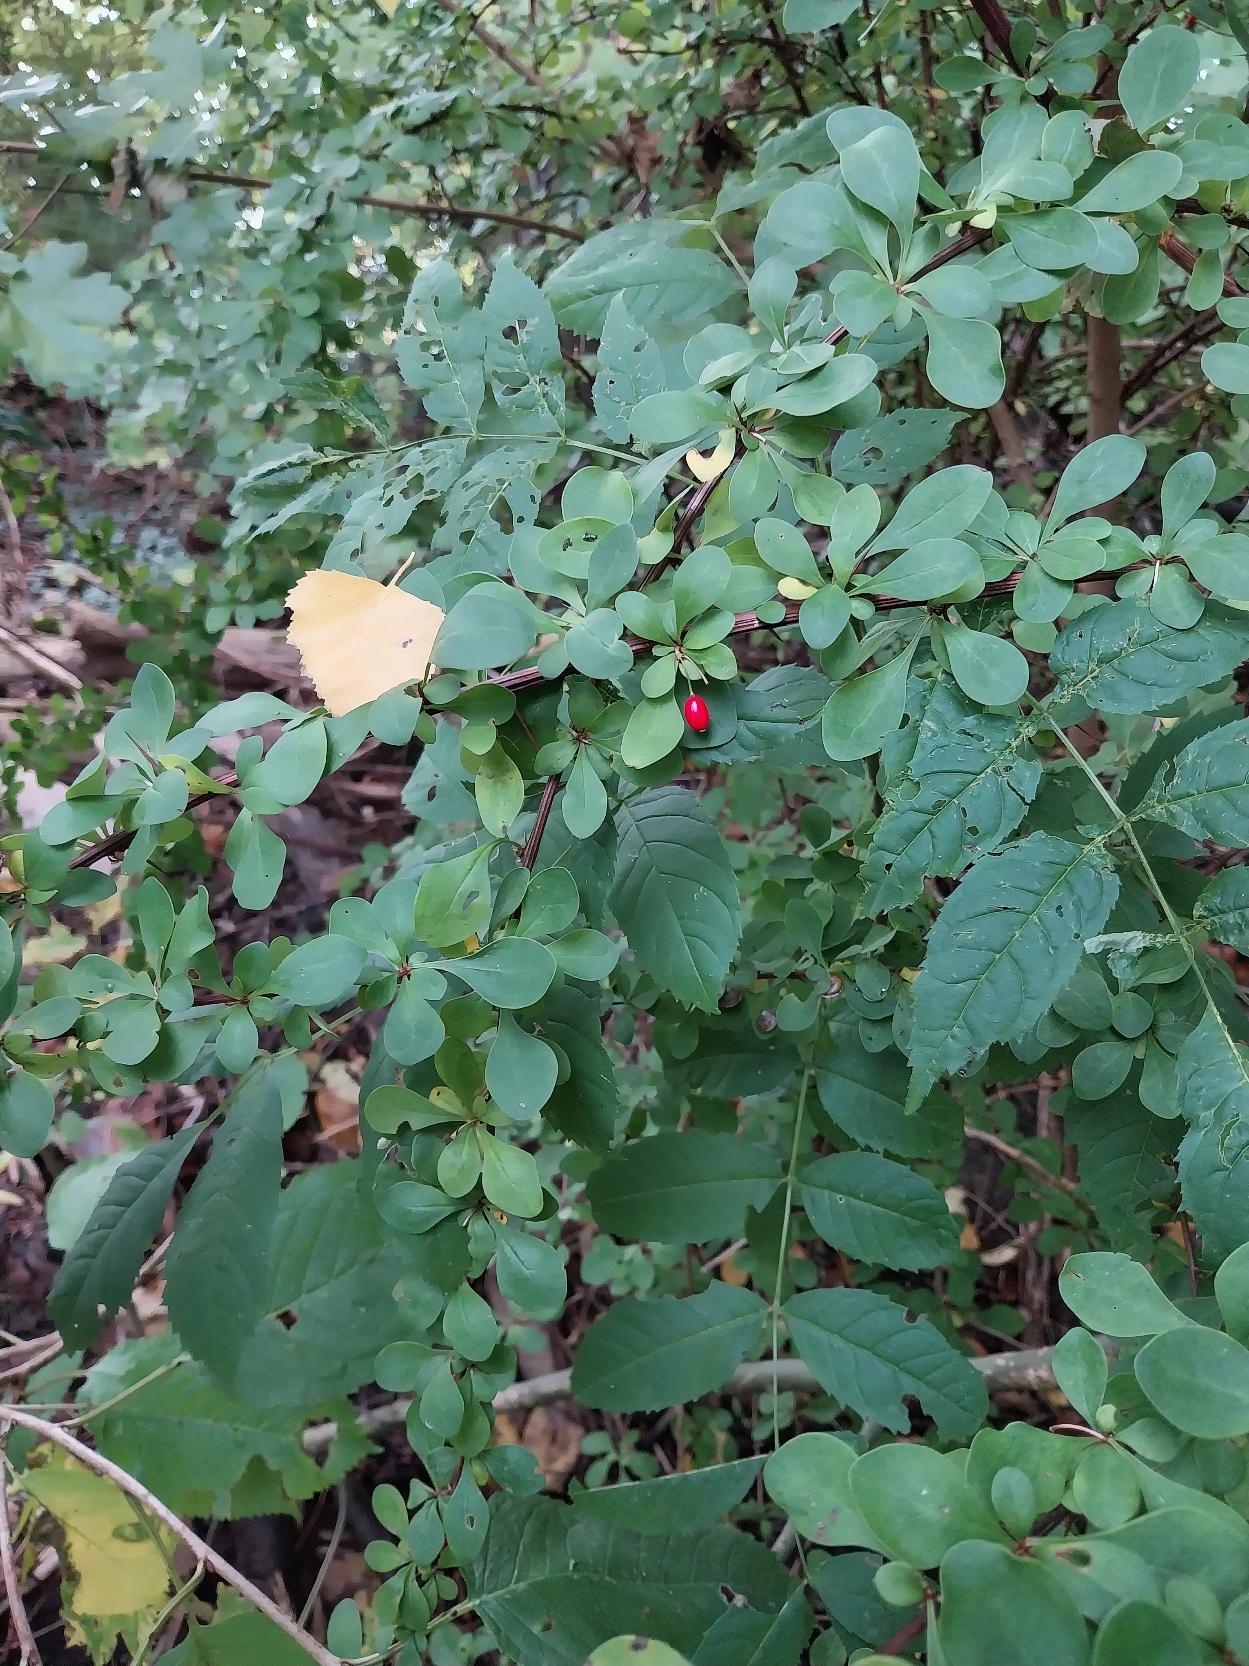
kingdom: Plantae
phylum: Tracheophyta
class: Magnoliopsida
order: Ranunculales
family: Berberidaceae
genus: Berberis
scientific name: Berberis thunbergii
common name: Hæk-berberis
